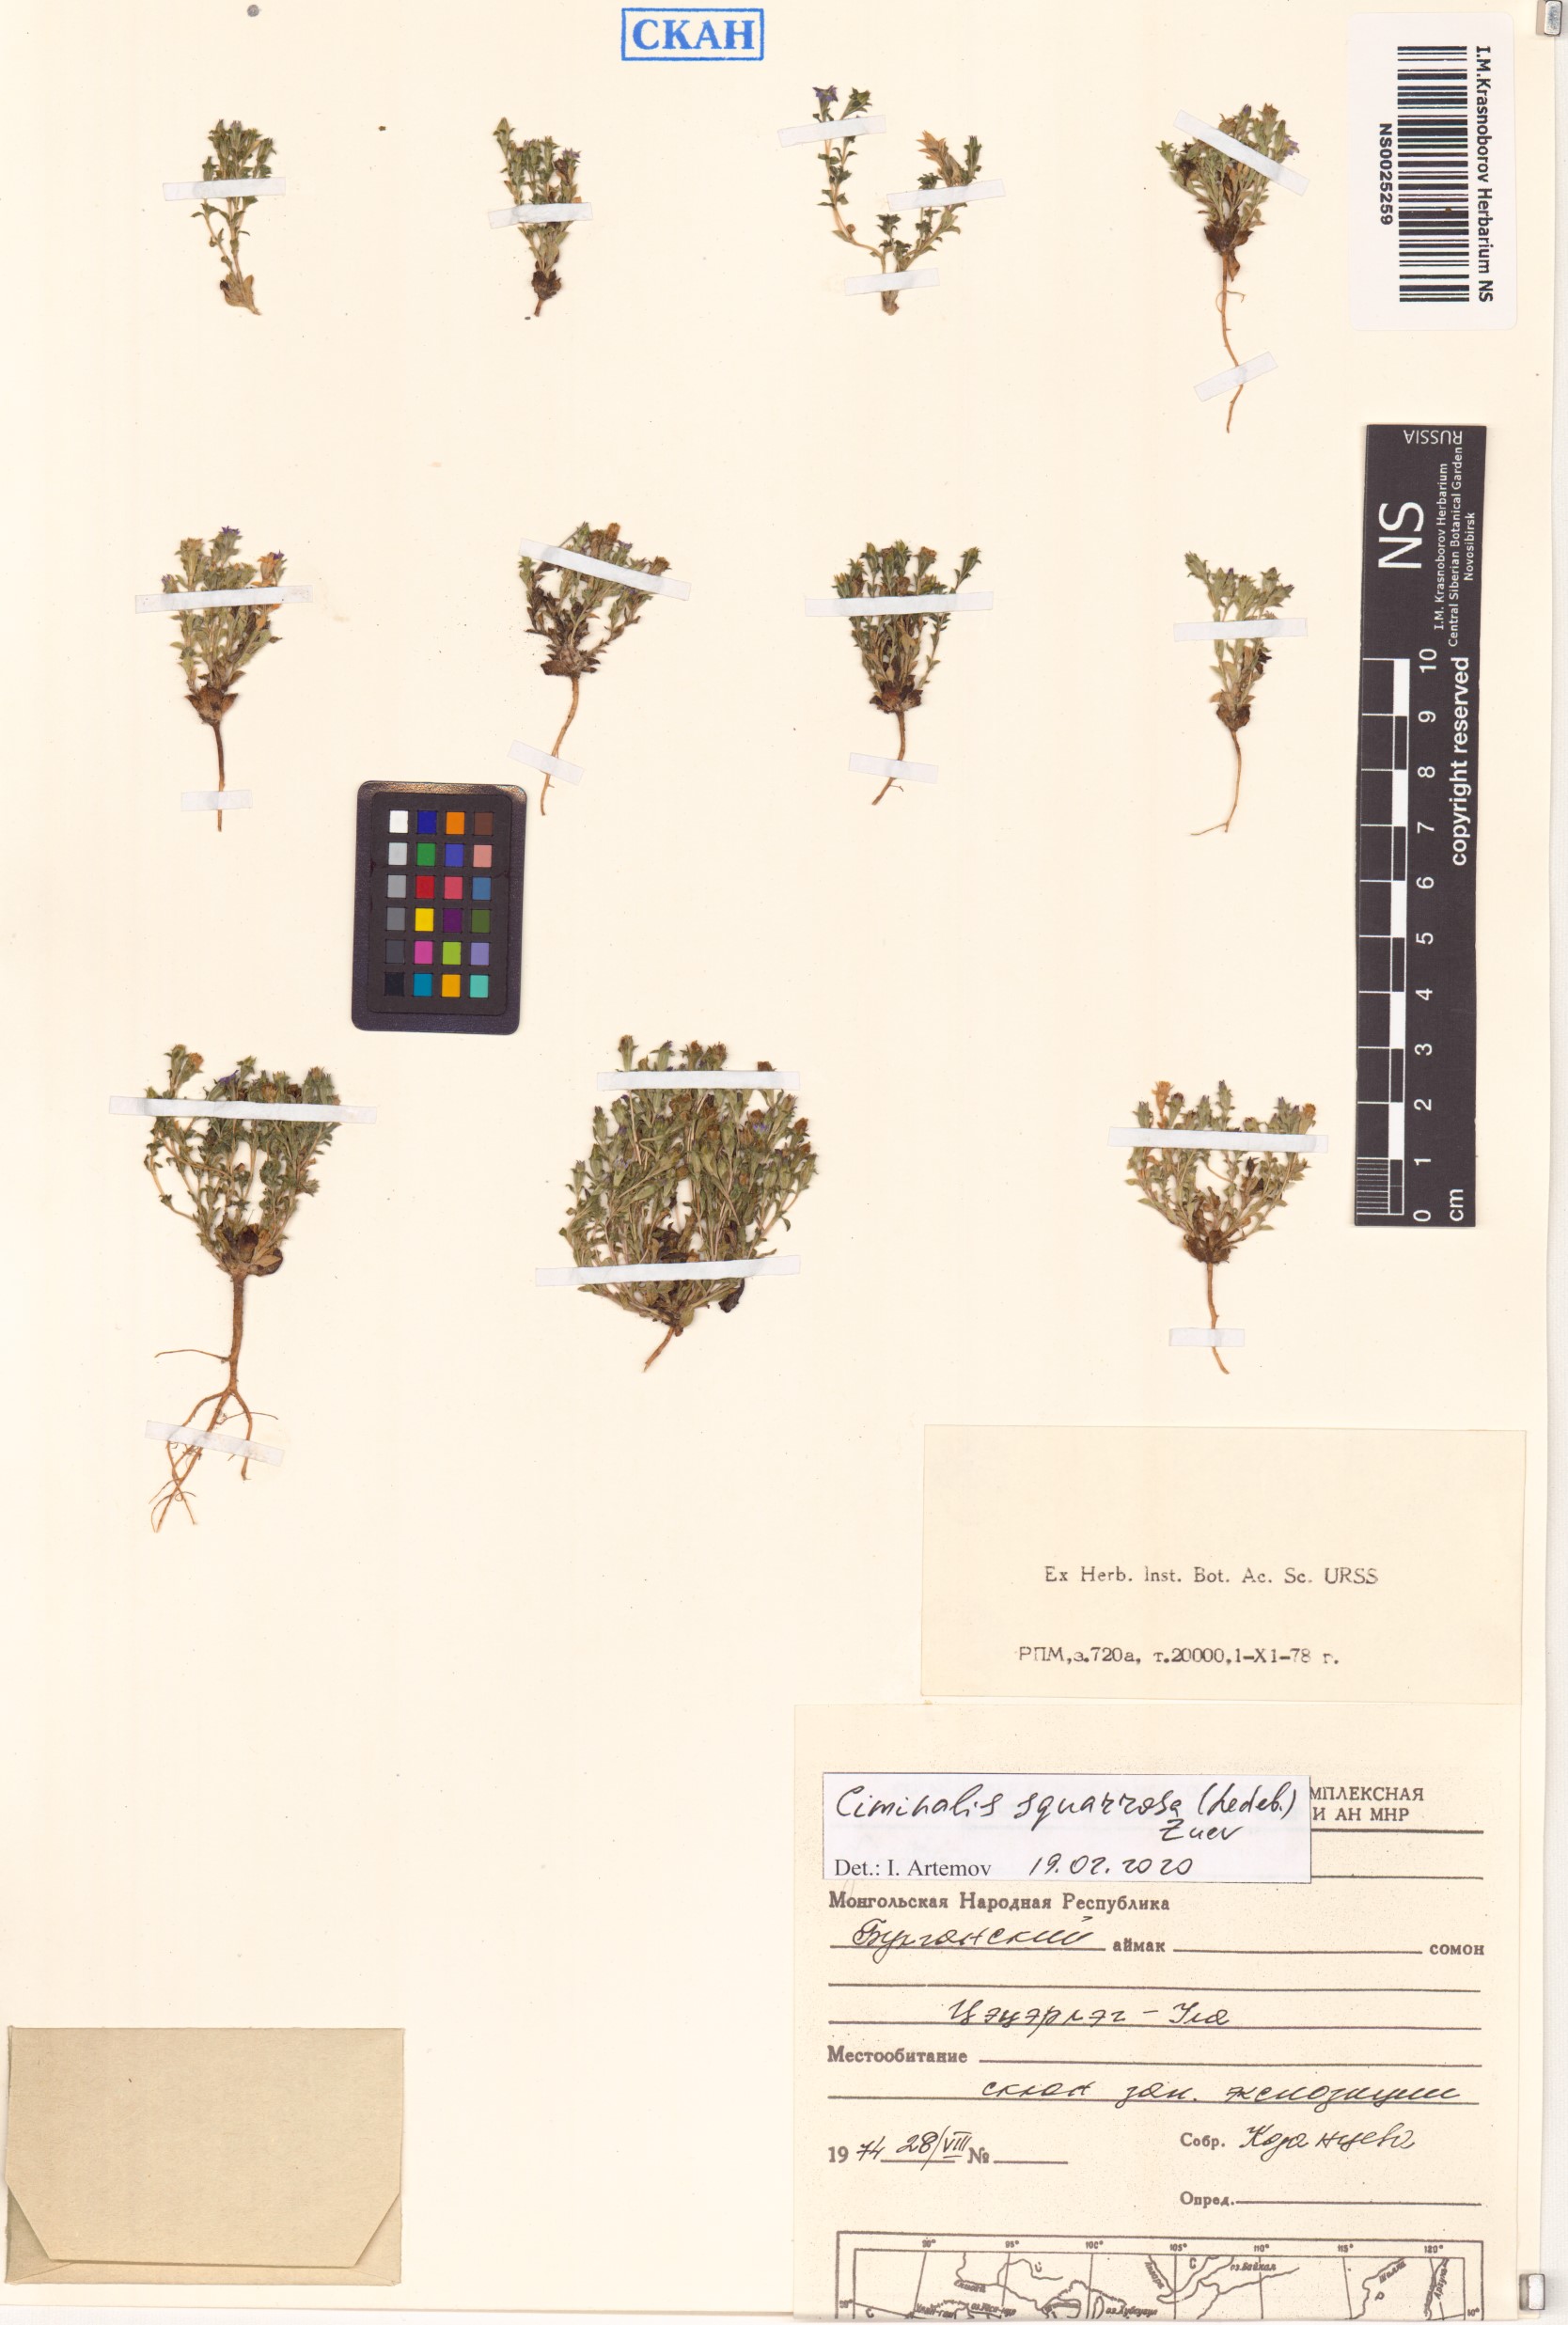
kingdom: Plantae
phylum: Tracheophyta
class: Magnoliopsida
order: Gentianales
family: Gentianaceae
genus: Gentiana
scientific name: Gentiana squarrosa
